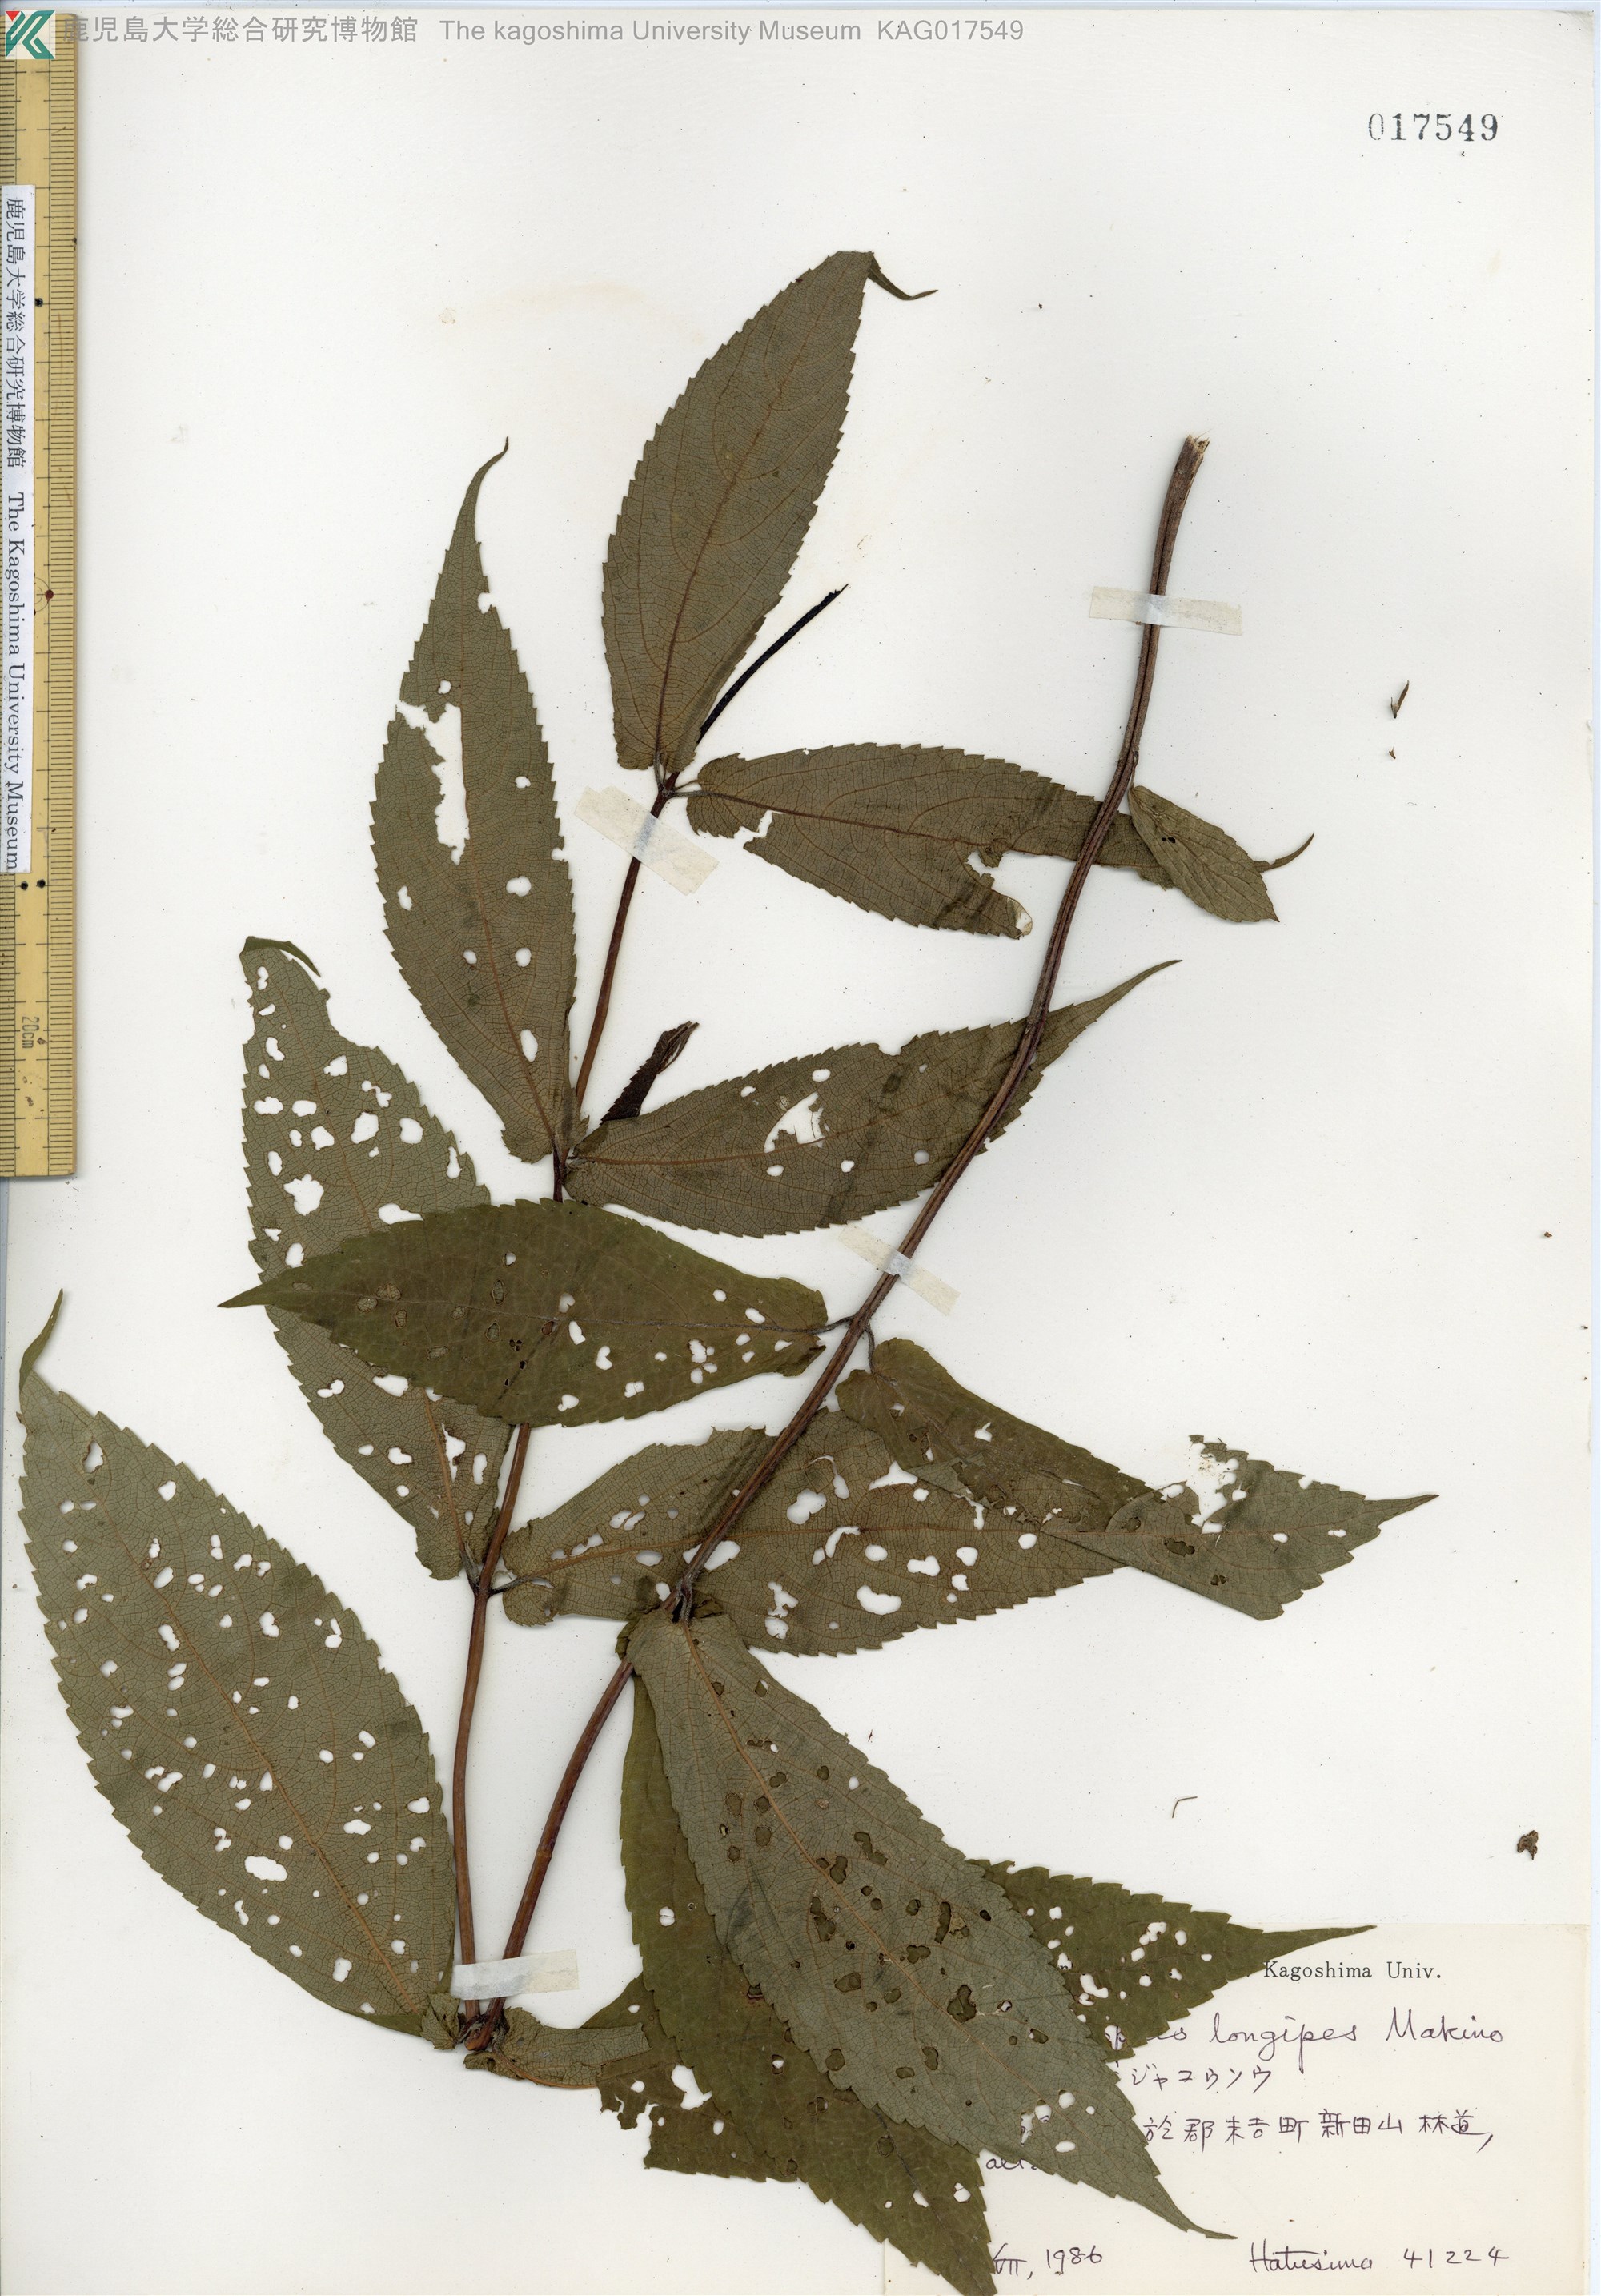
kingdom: Plantae
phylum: Tracheophyta
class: Magnoliopsida
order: Lamiales
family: Lamiaceae
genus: Chelonopsis
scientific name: Chelonopsis longipes
